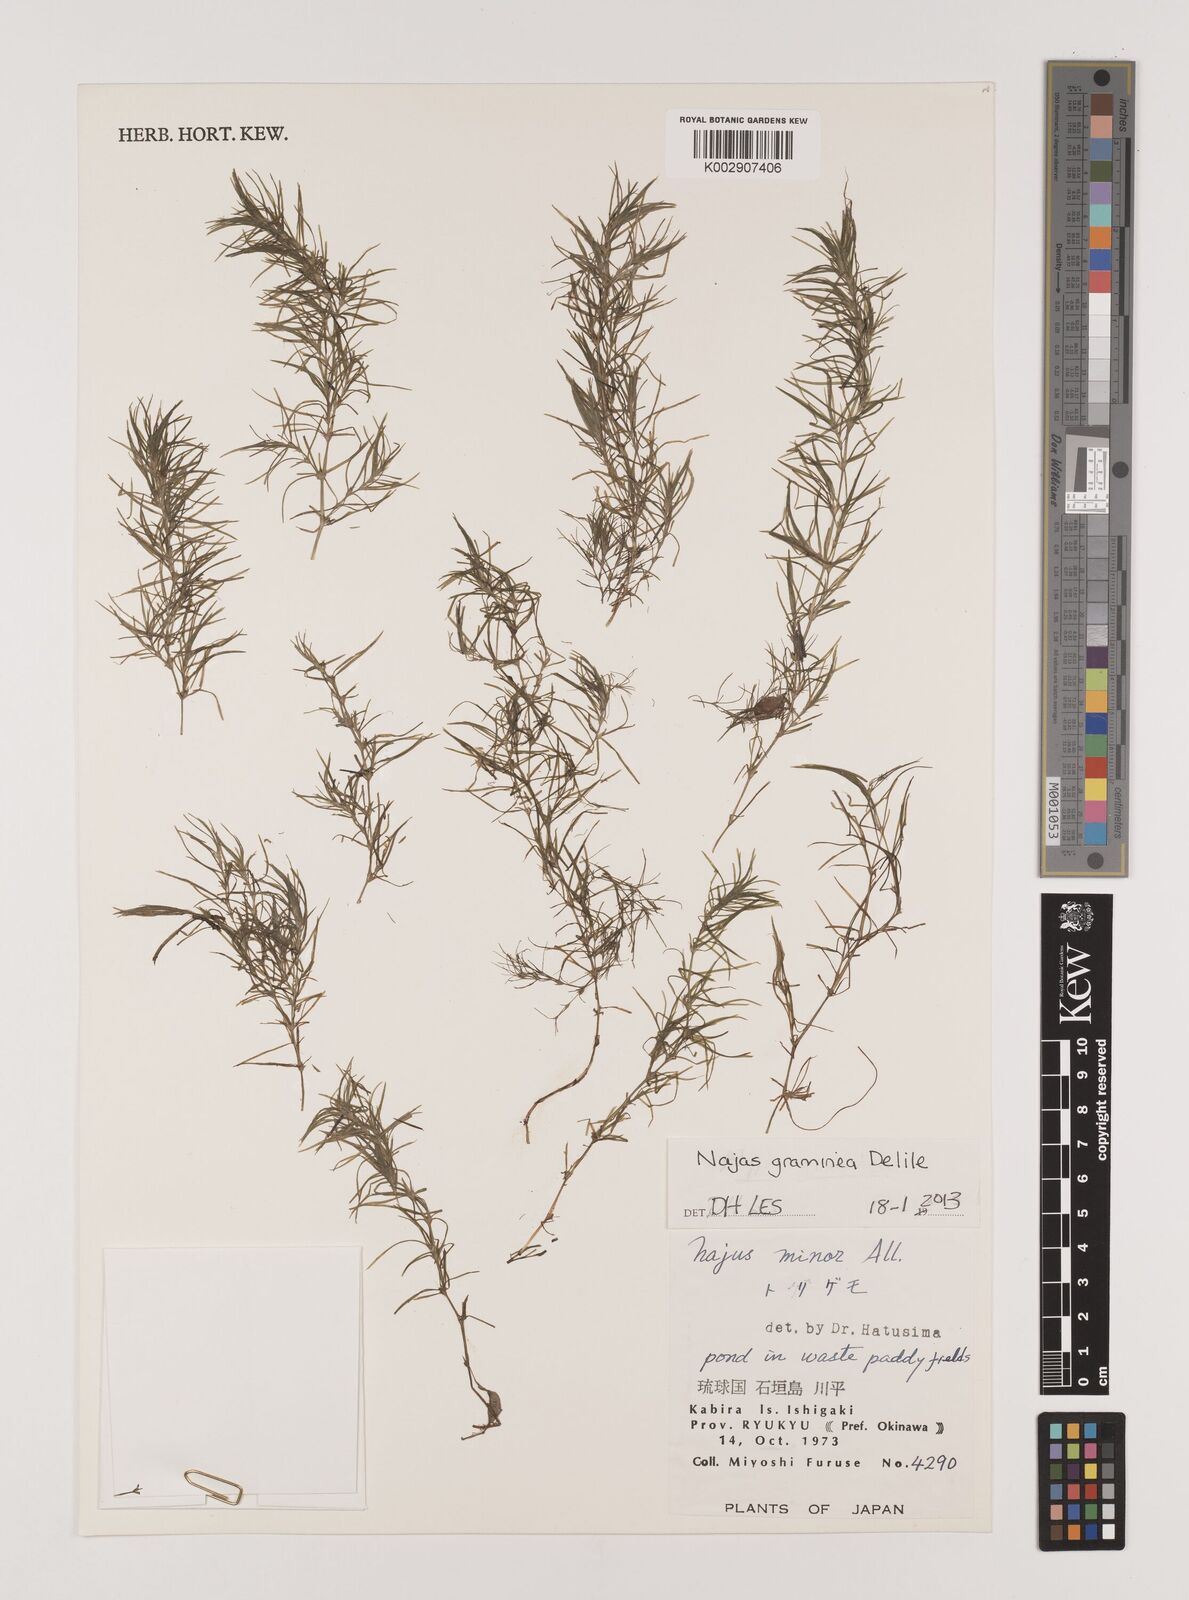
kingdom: Plantae
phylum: Tracheophyta
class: Liliopsida
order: Alismatales
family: Hydrocharitaceae
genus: Najas
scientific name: Najas graminea
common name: Ricefield waternymph
